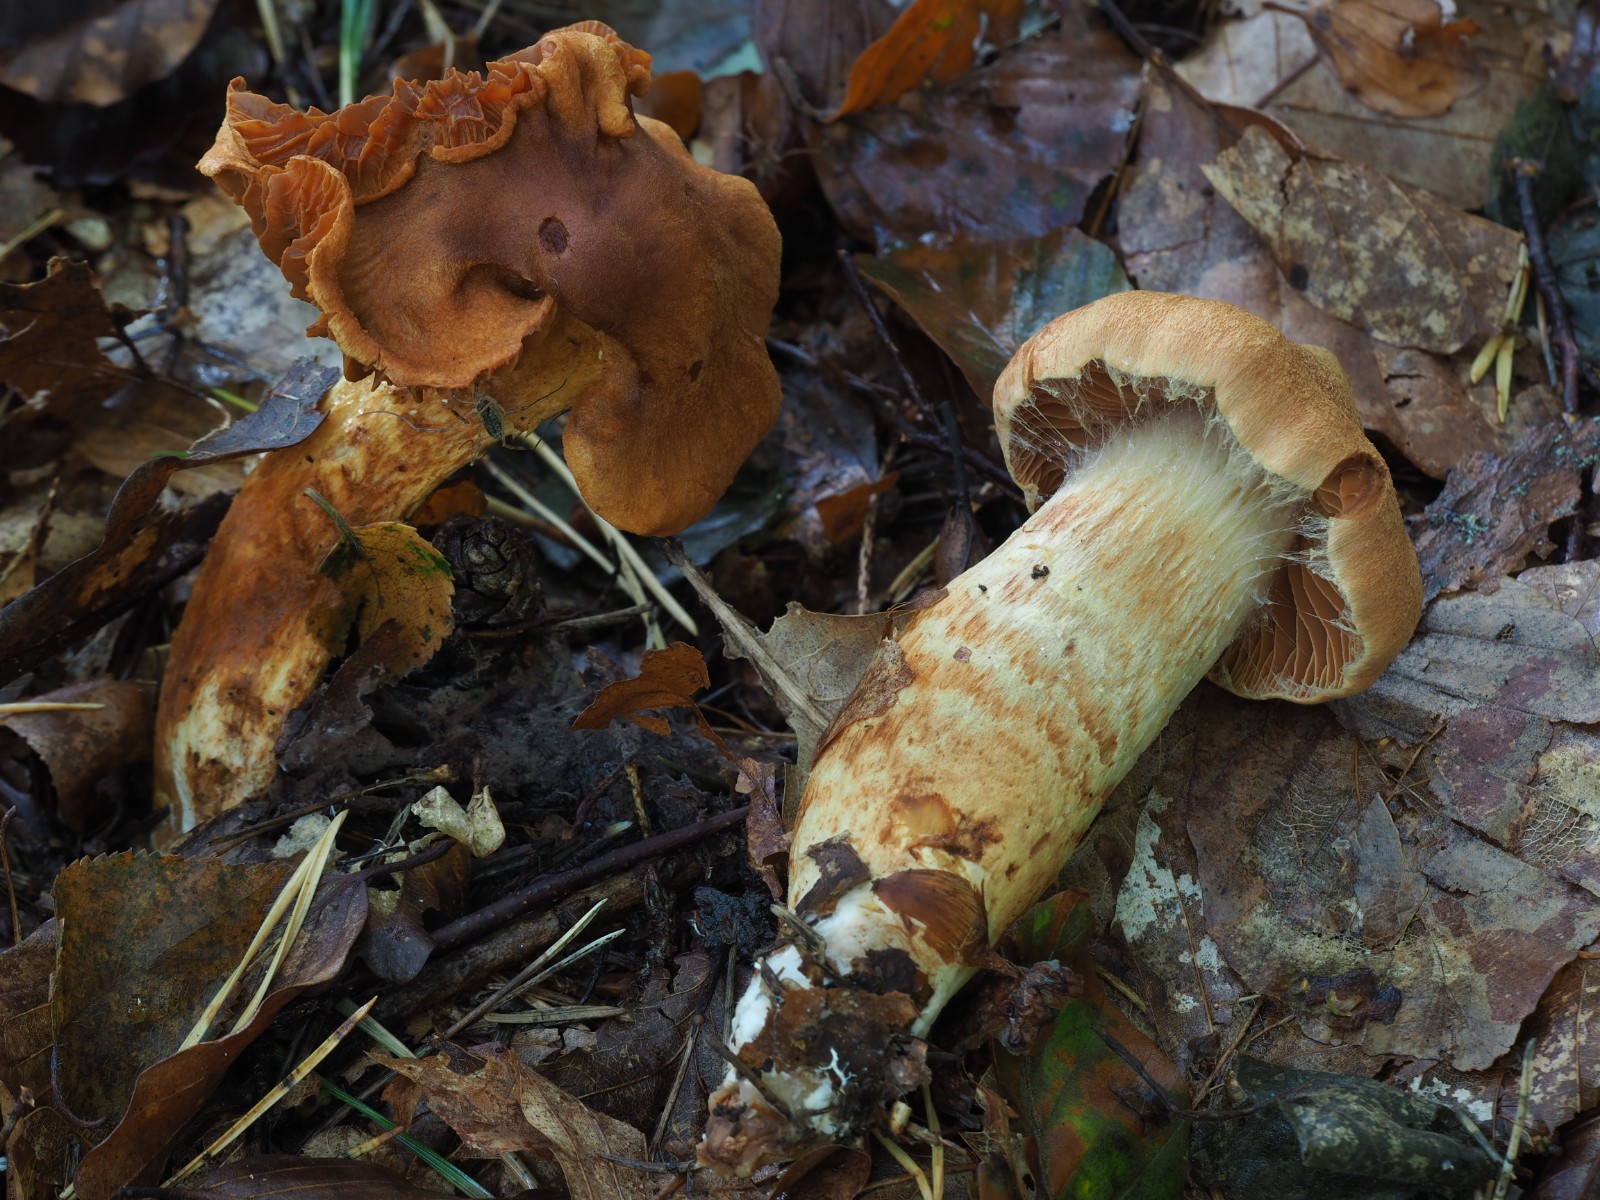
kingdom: Fungi
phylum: Basidiomycota
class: Agaricomycetes
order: Agaricales
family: Cortinariaceae
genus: Cortinarius
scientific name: Cortinarius rubellus
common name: puklet gift-slørhat
